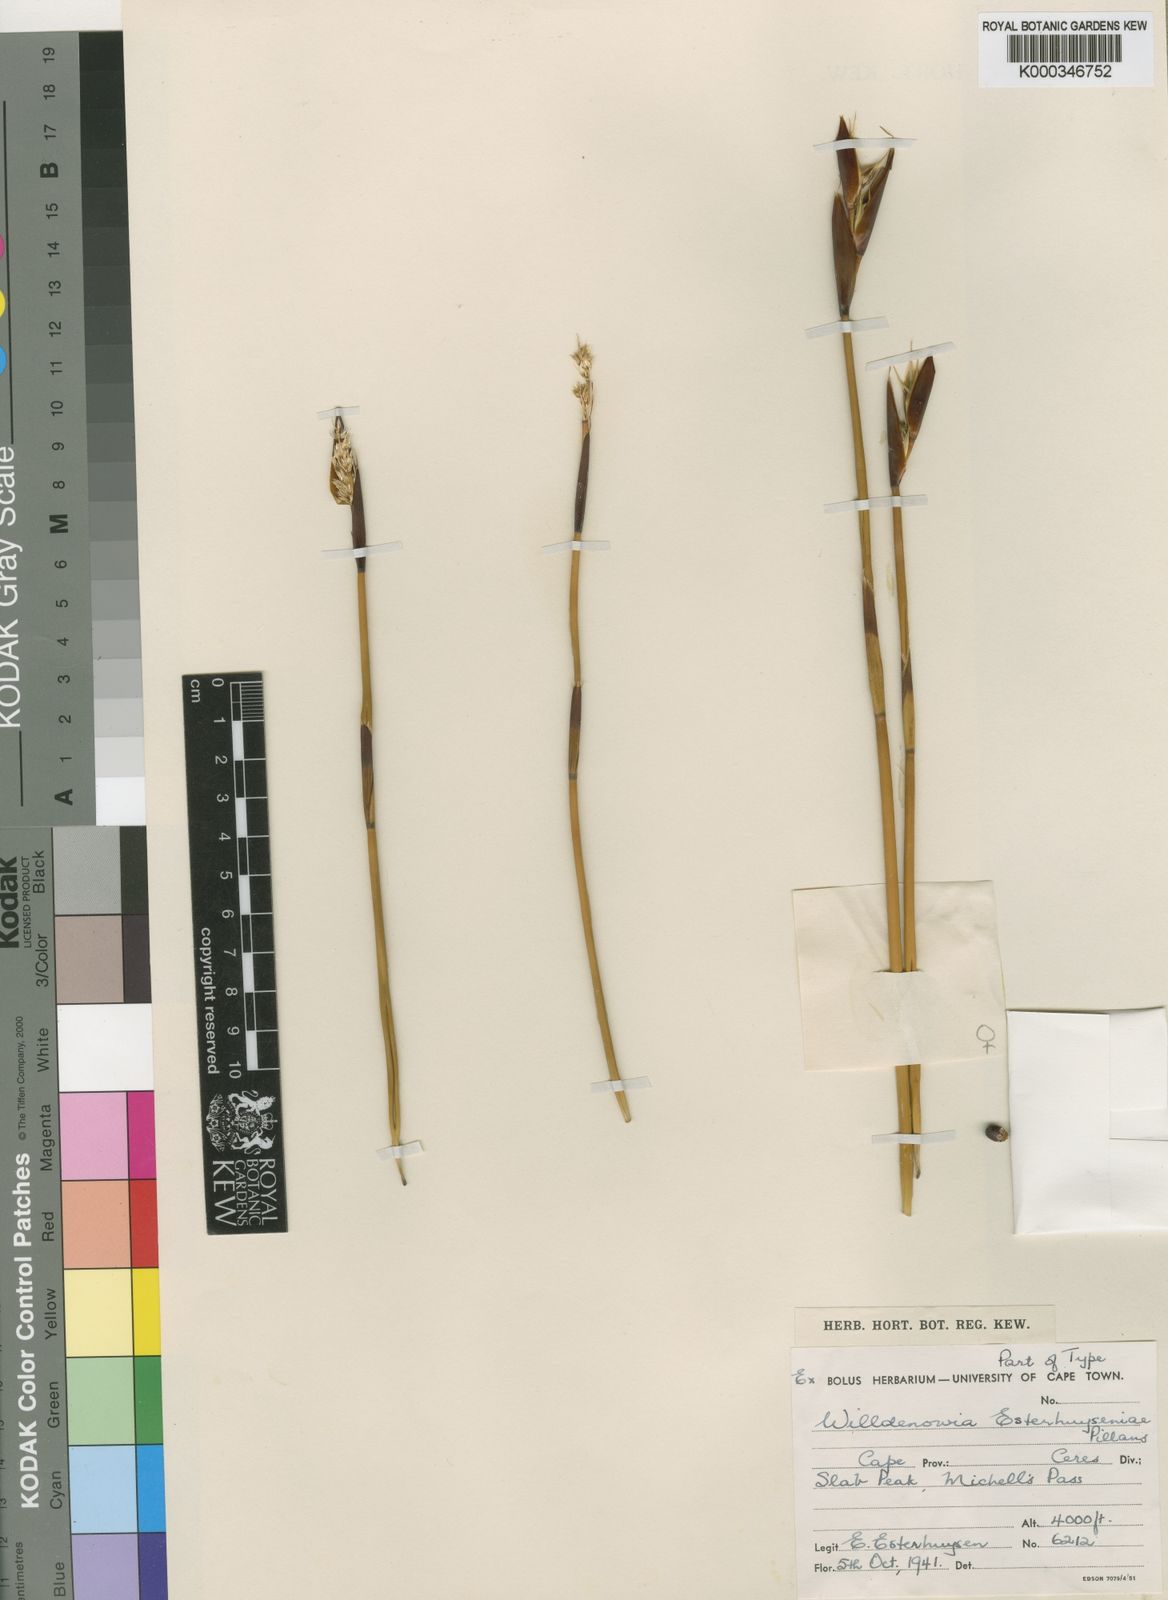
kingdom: Plantae
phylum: Tracheophyta
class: Liliopsida
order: Poales
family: Restionaceae
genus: Ceratocaryum
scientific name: Ceratocaryum fimbriatum
